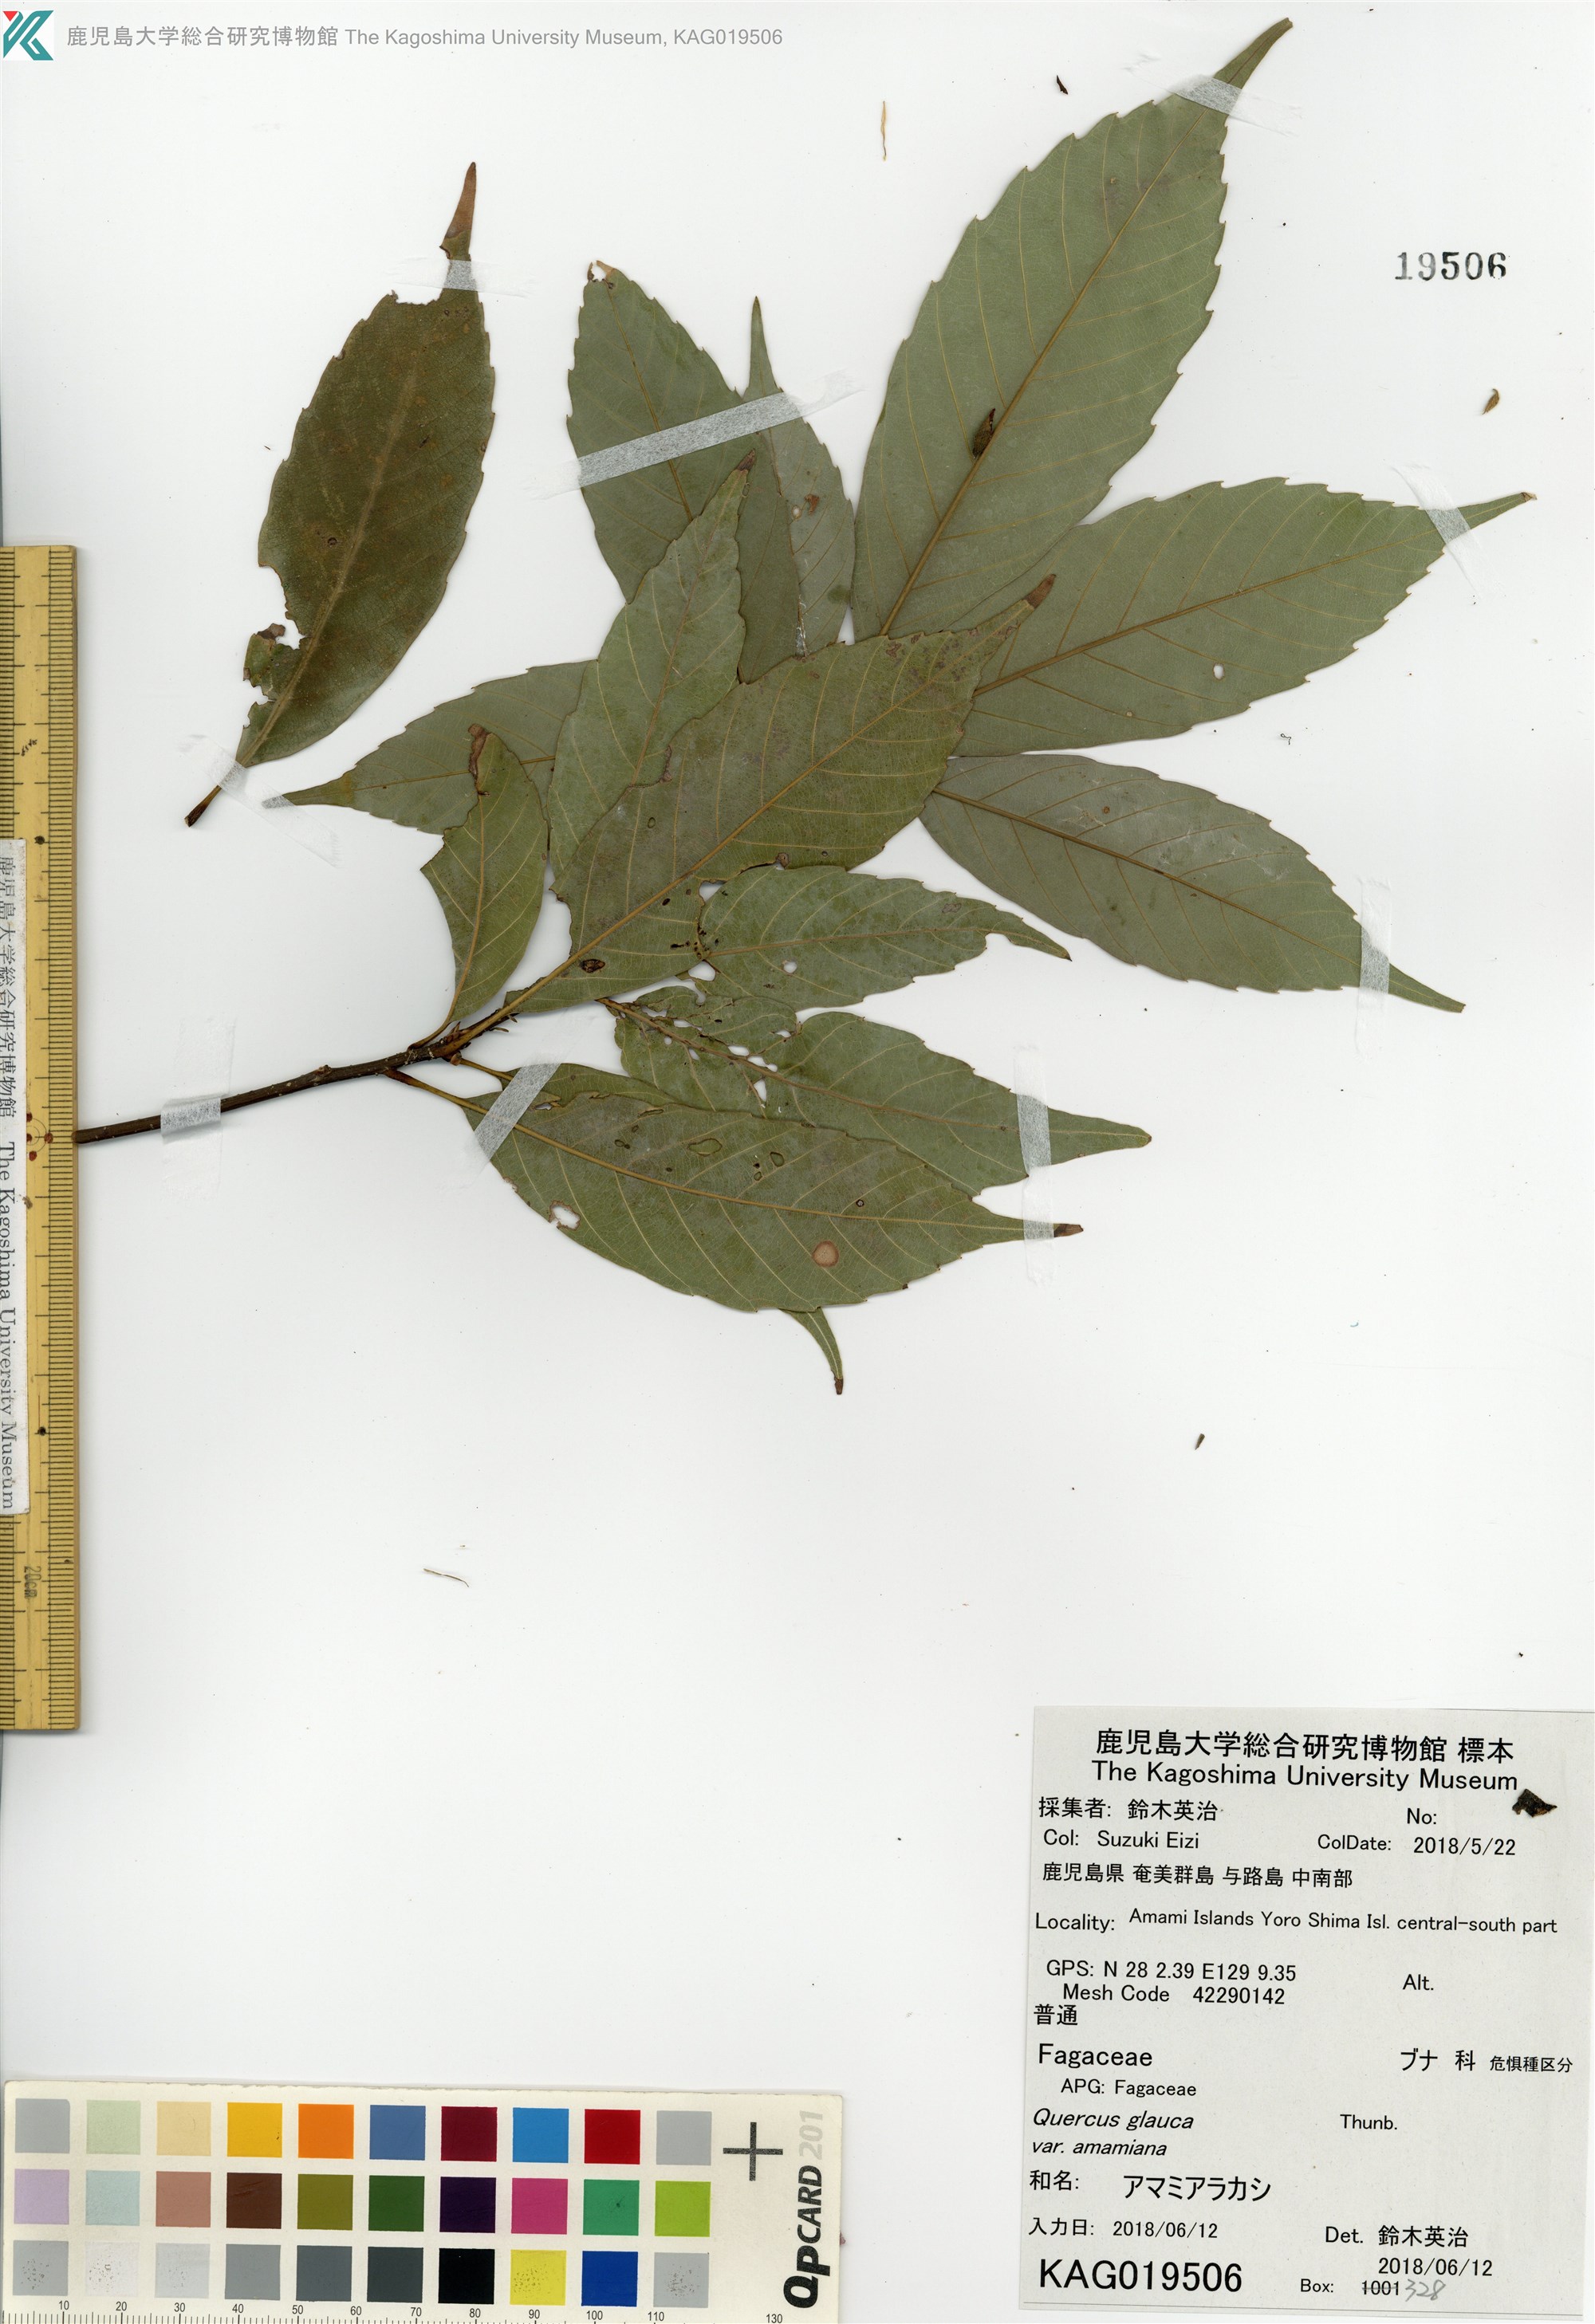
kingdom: Plantae
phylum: Tracheophyta
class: Magnoliopsida
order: Fagales
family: Fagaceae
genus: Quercus
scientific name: Quercus glauca
